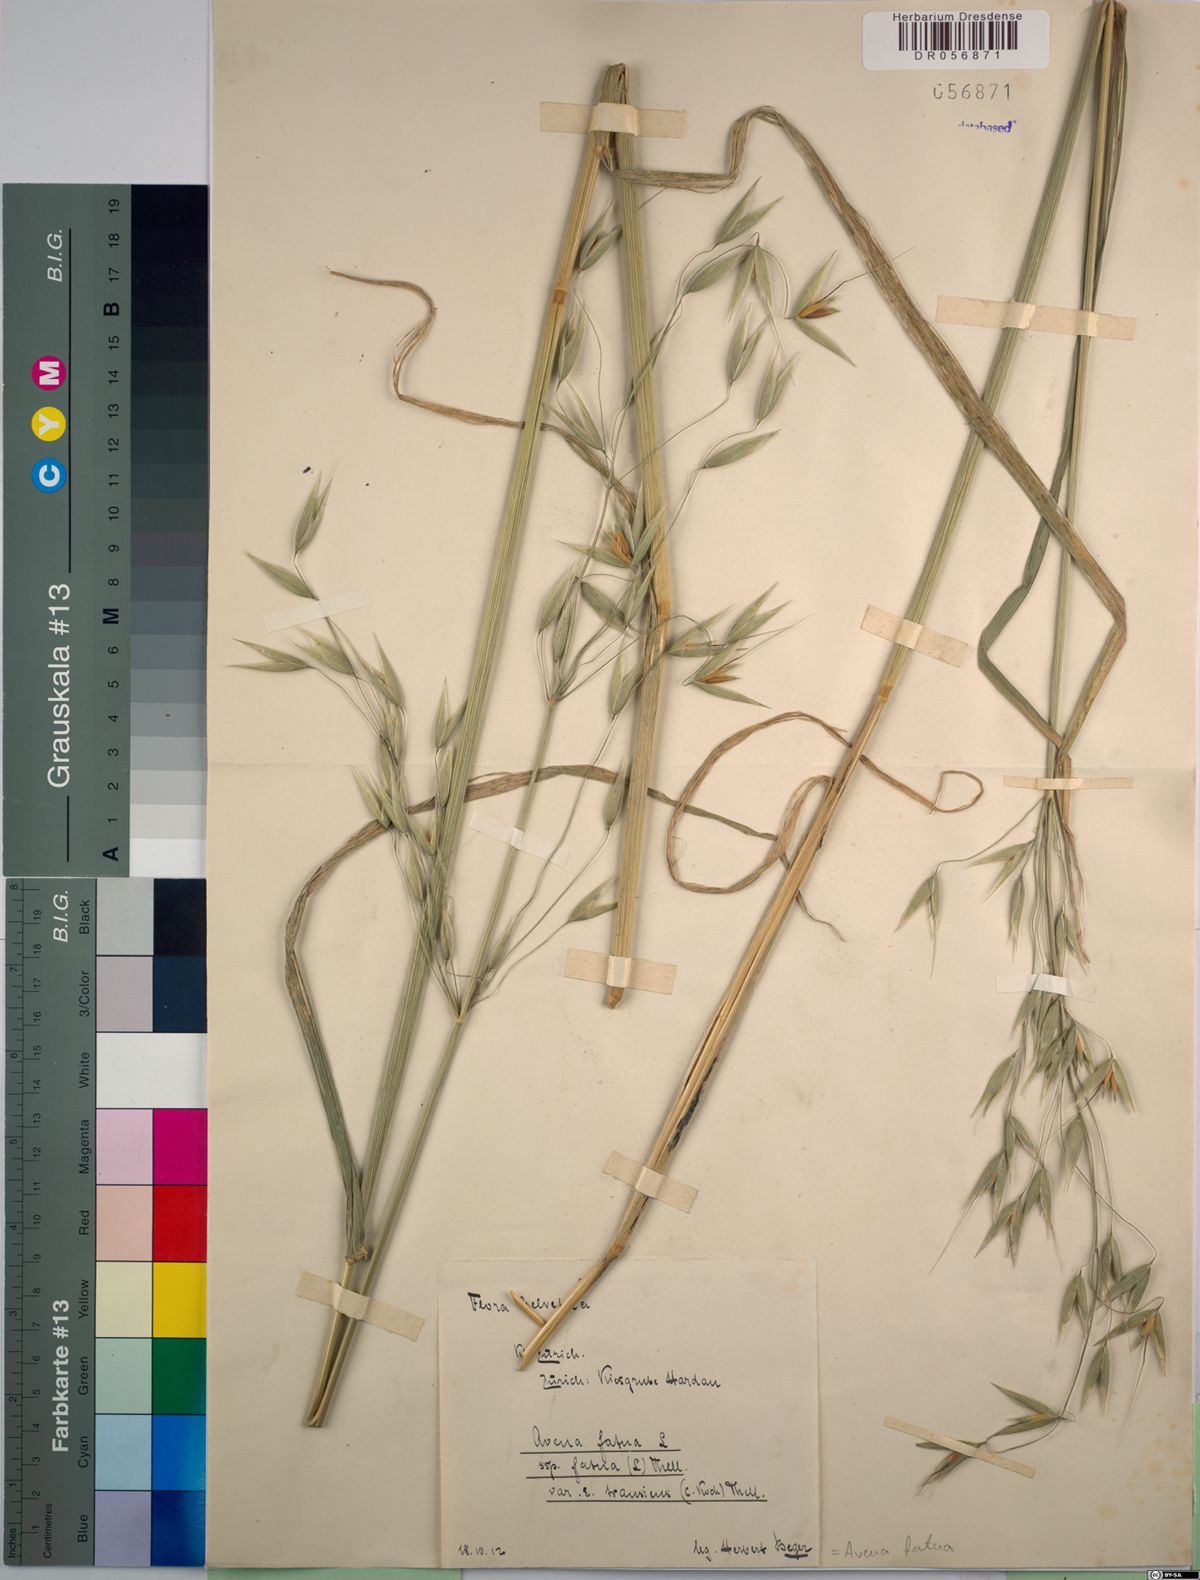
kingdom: Plantae
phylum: Tracheophyta
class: Liliopsida
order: Poales
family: Poaceae
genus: Avena
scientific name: Avena fatua
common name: Wild oat
